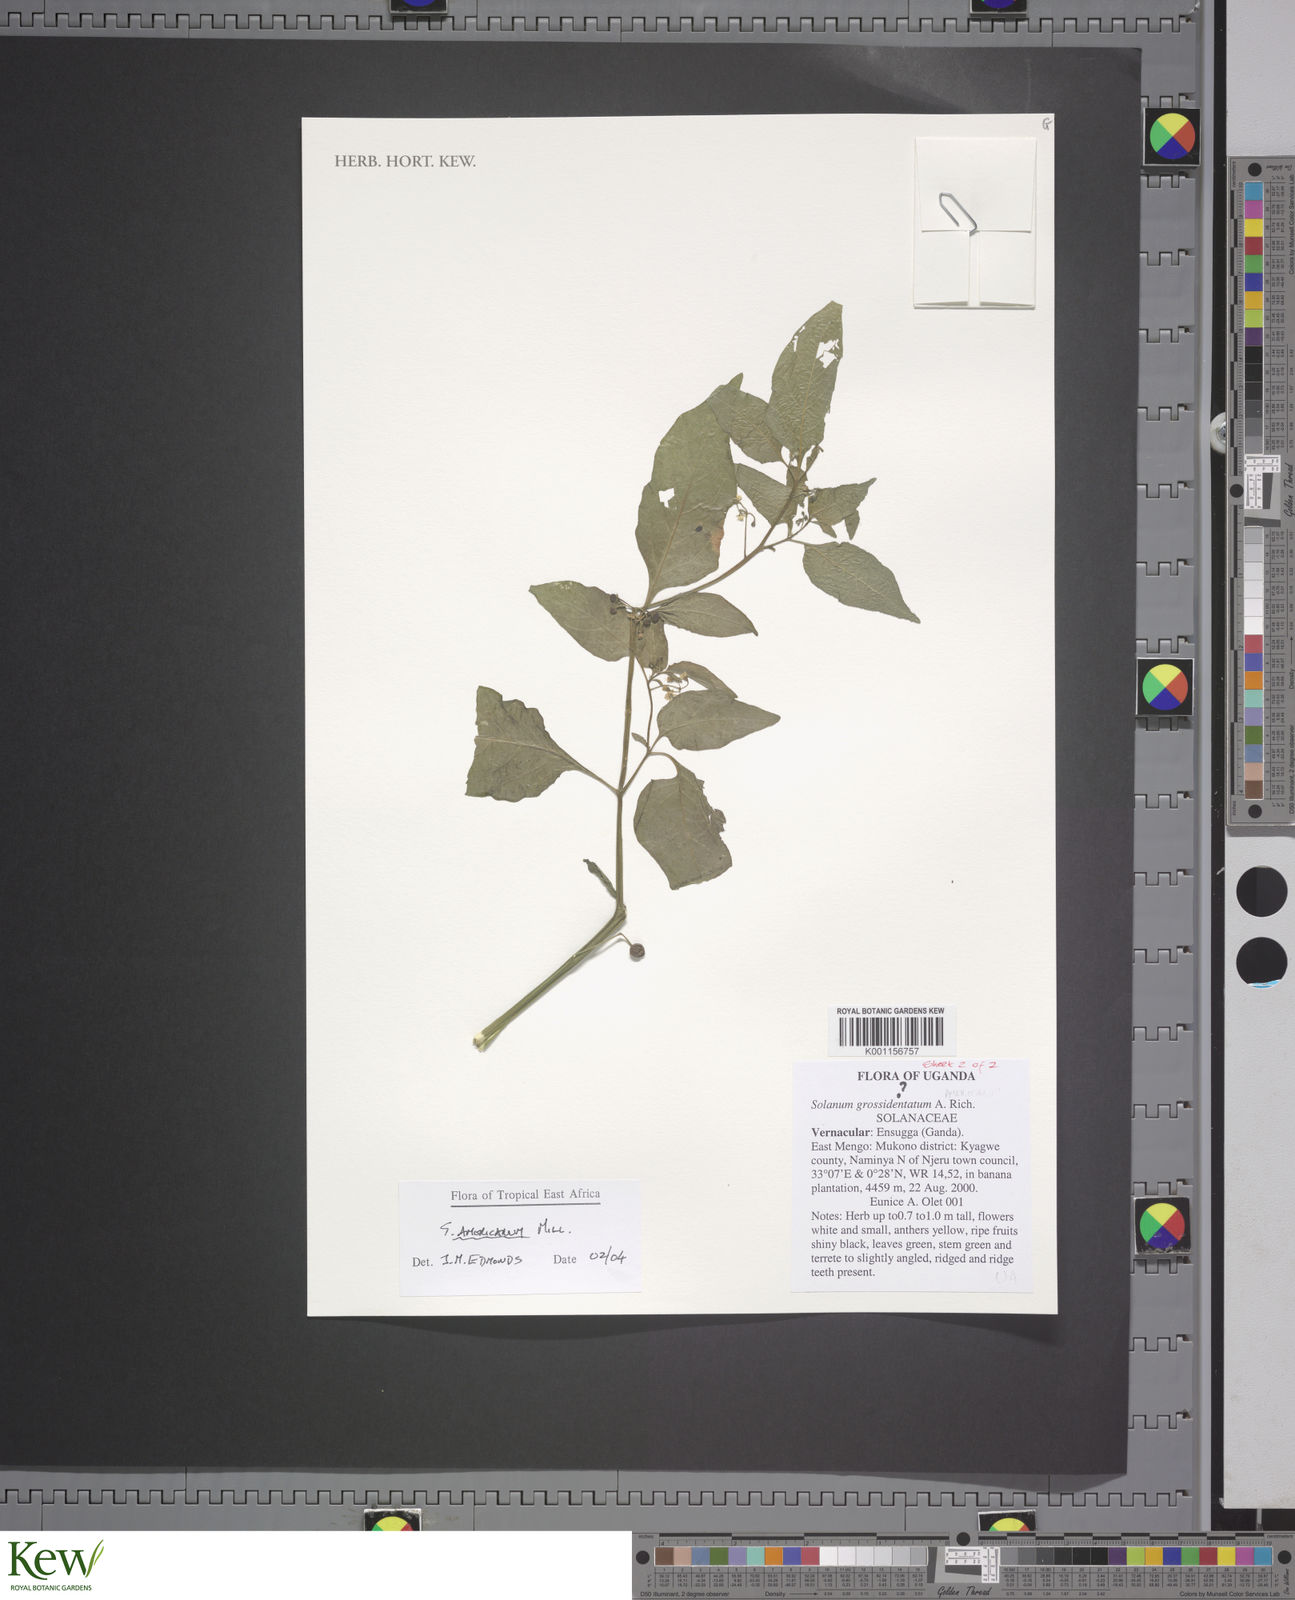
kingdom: Plantae
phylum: Tracheophyta
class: Magnoliopsida
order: Solanales
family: Solanaceae
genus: Solanum
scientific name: Solanum americanum
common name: American black nightshade
